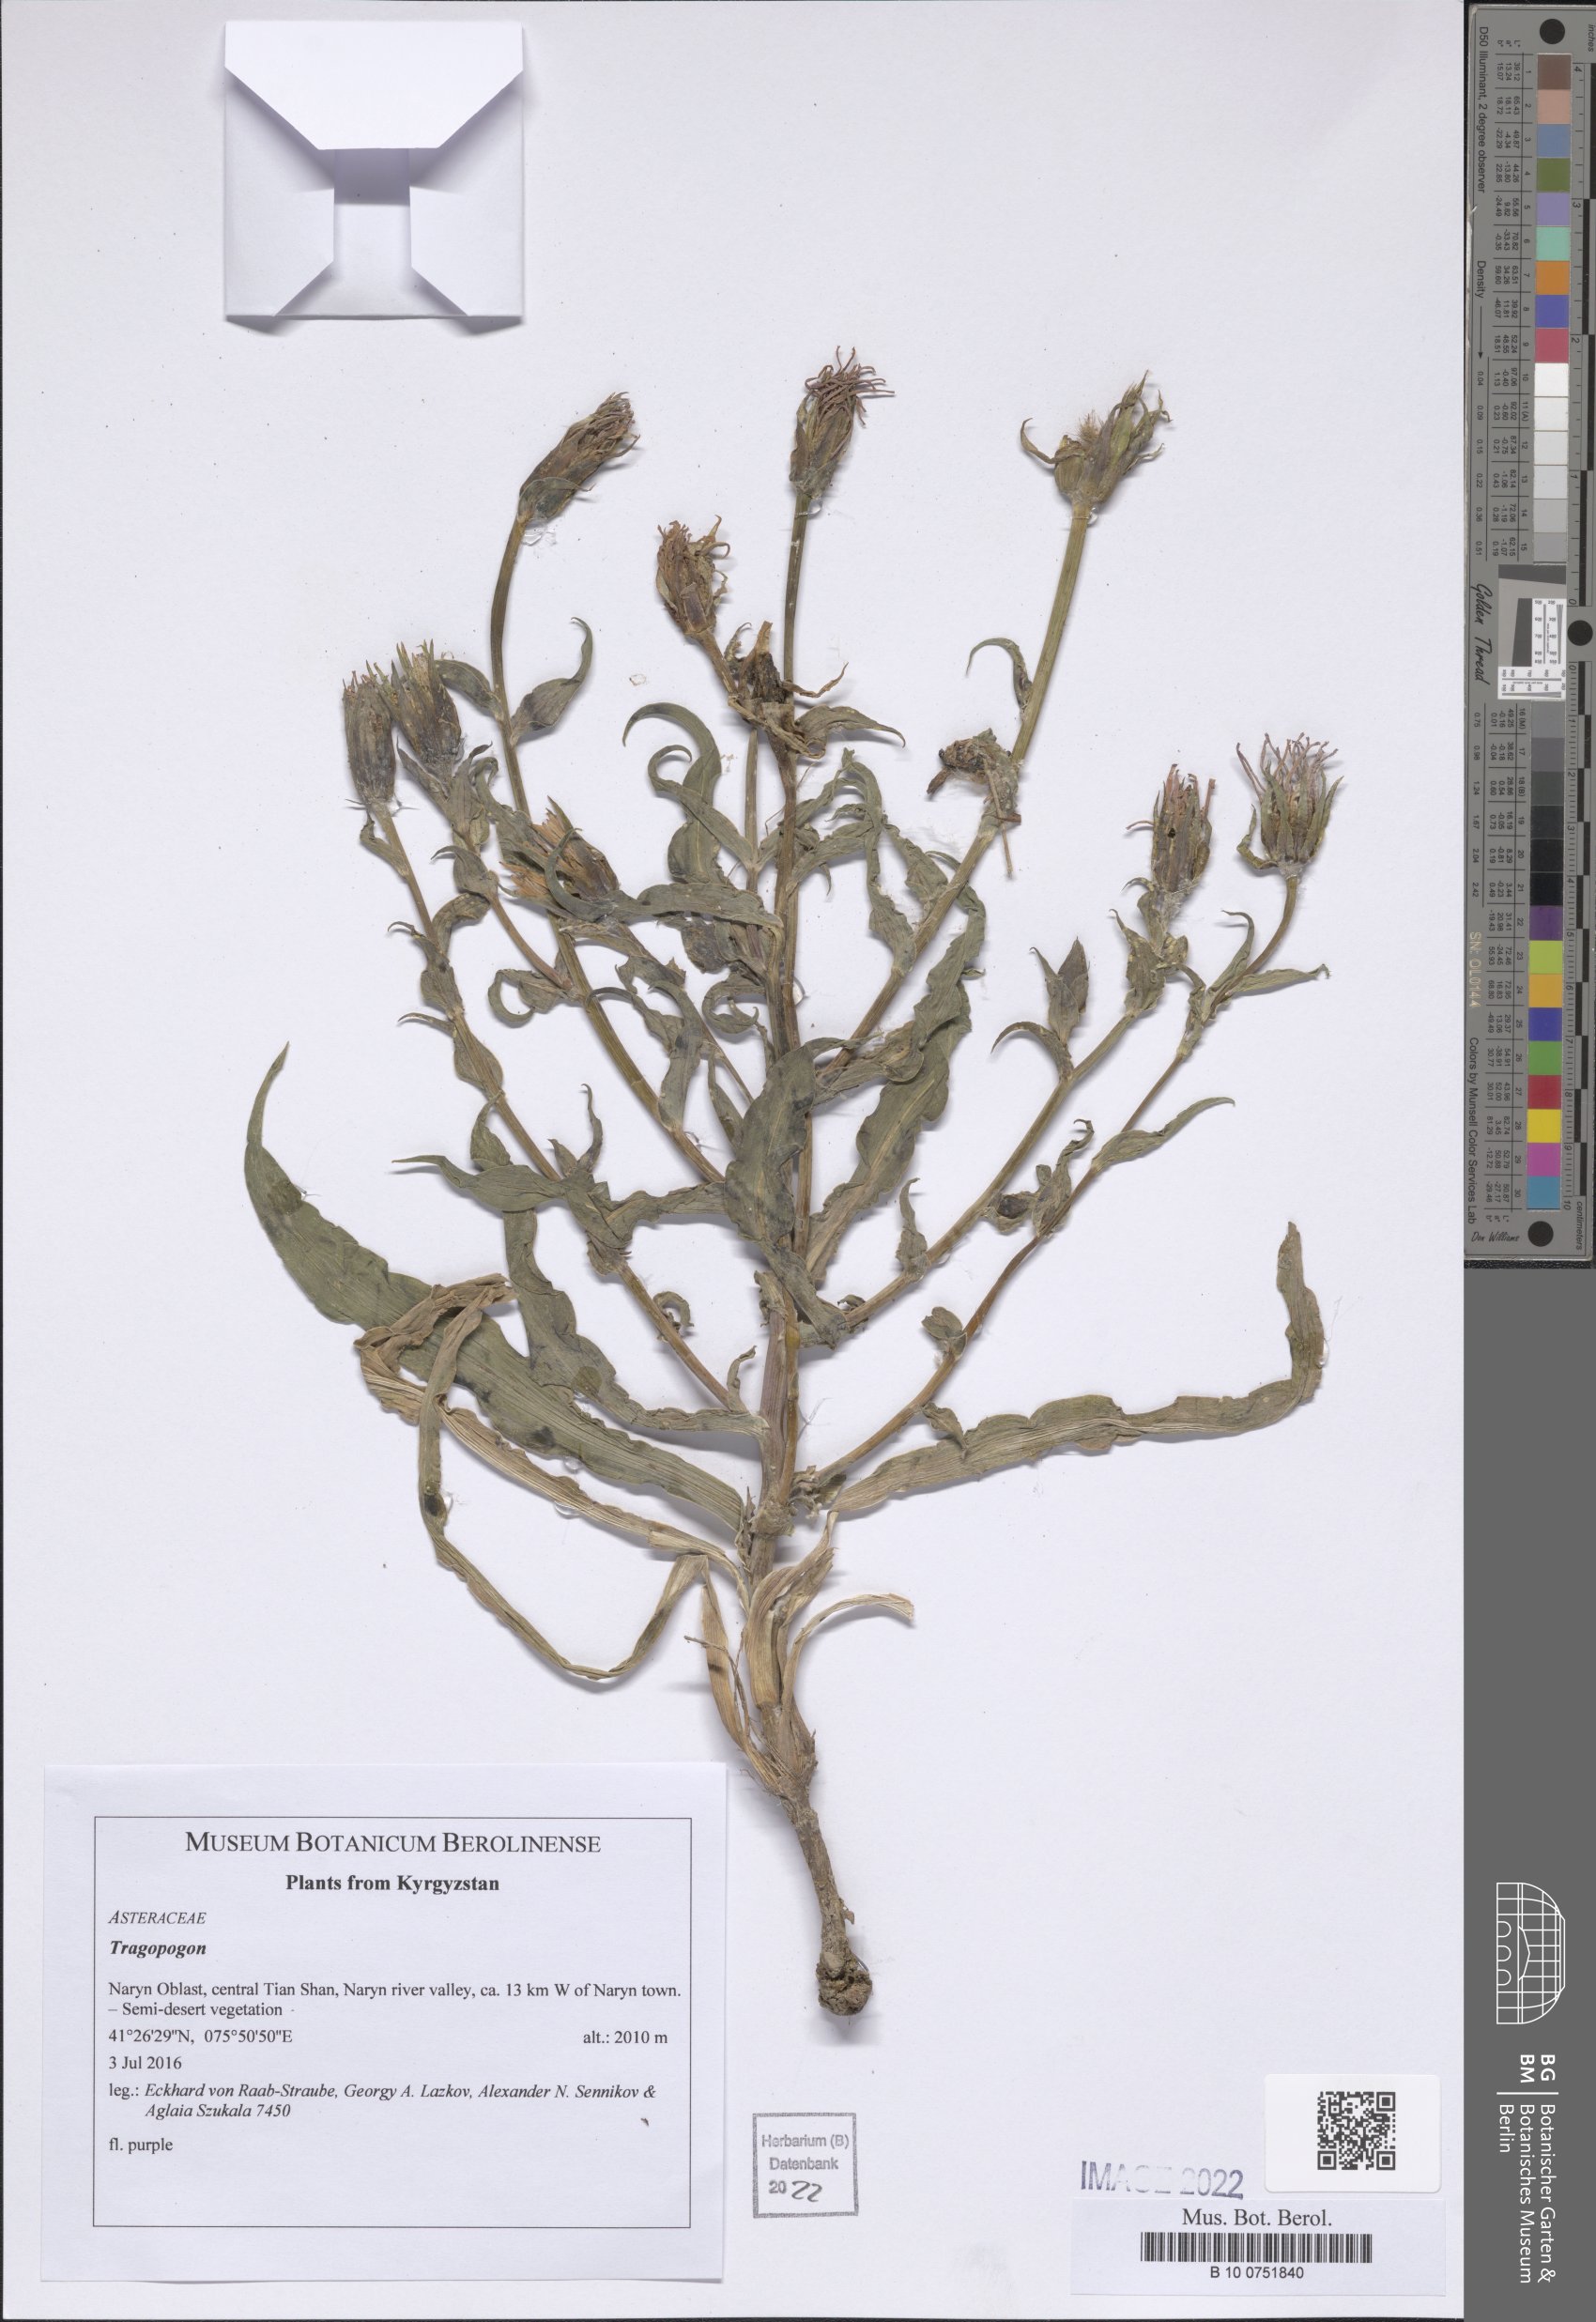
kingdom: Plantae
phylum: Tracheophyta
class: Magnoliopsida
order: Asterales
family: Asteraceae
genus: Tragopogon
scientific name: Tragopogon
